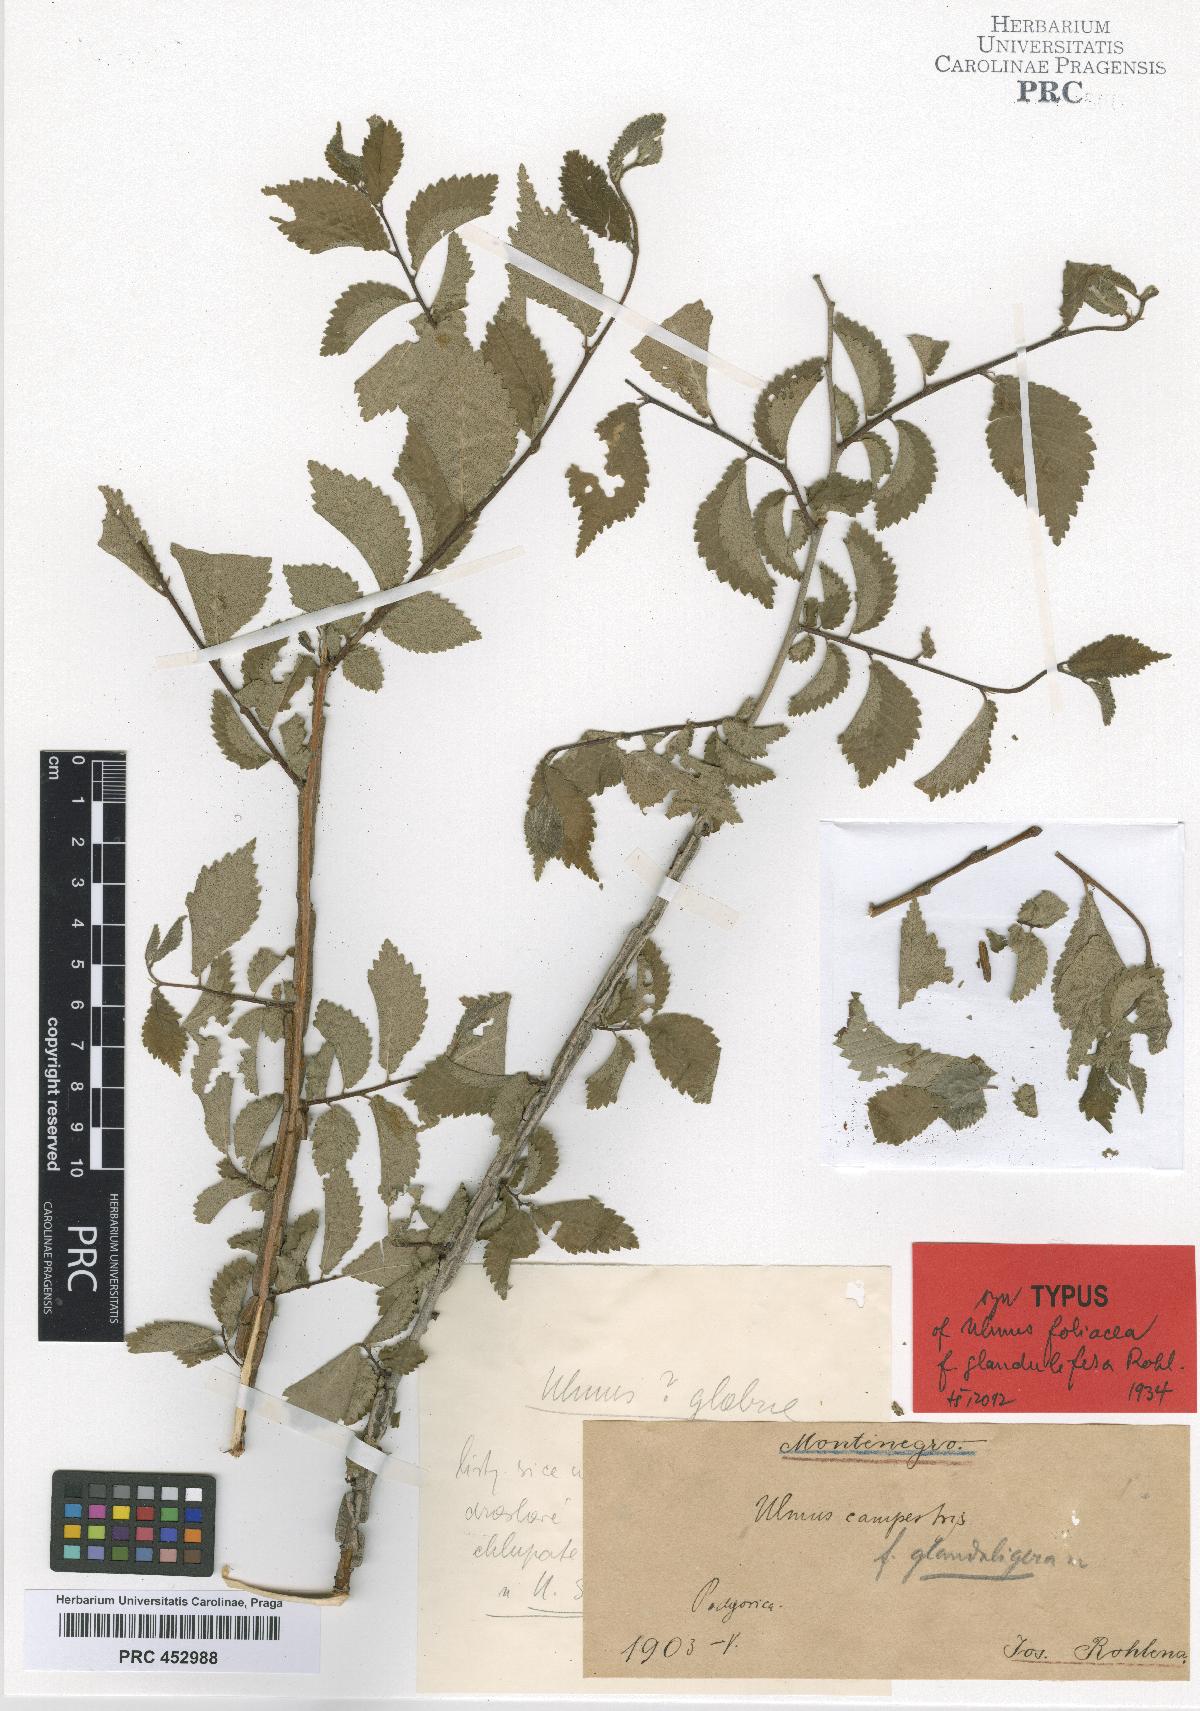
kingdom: Plantae
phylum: Tracheophyta
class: Magnoliopsida
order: Rosales
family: Ulmaceae
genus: Ulmus
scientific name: Ulmus minor
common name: Small-leaved elm
